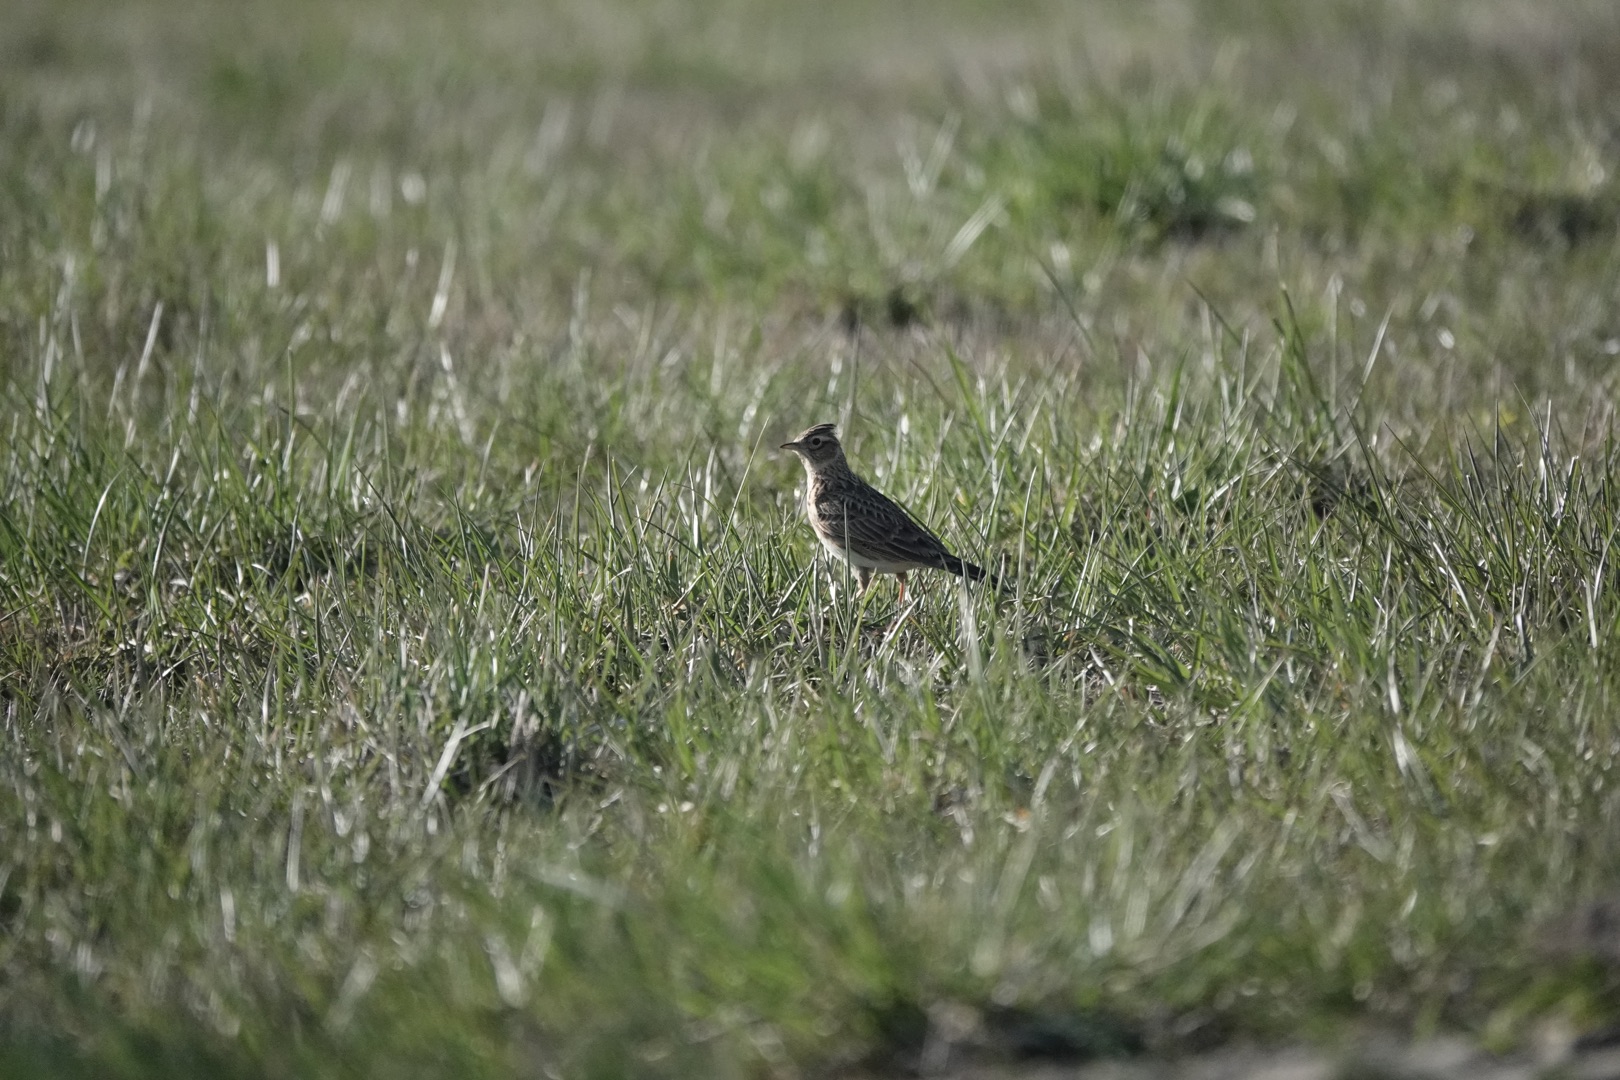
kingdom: Animalia
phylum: Chordata
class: Aves
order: Passeriformes
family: Alaudidae
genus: Alauda
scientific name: Alauda arvensis
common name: Sanglærke
